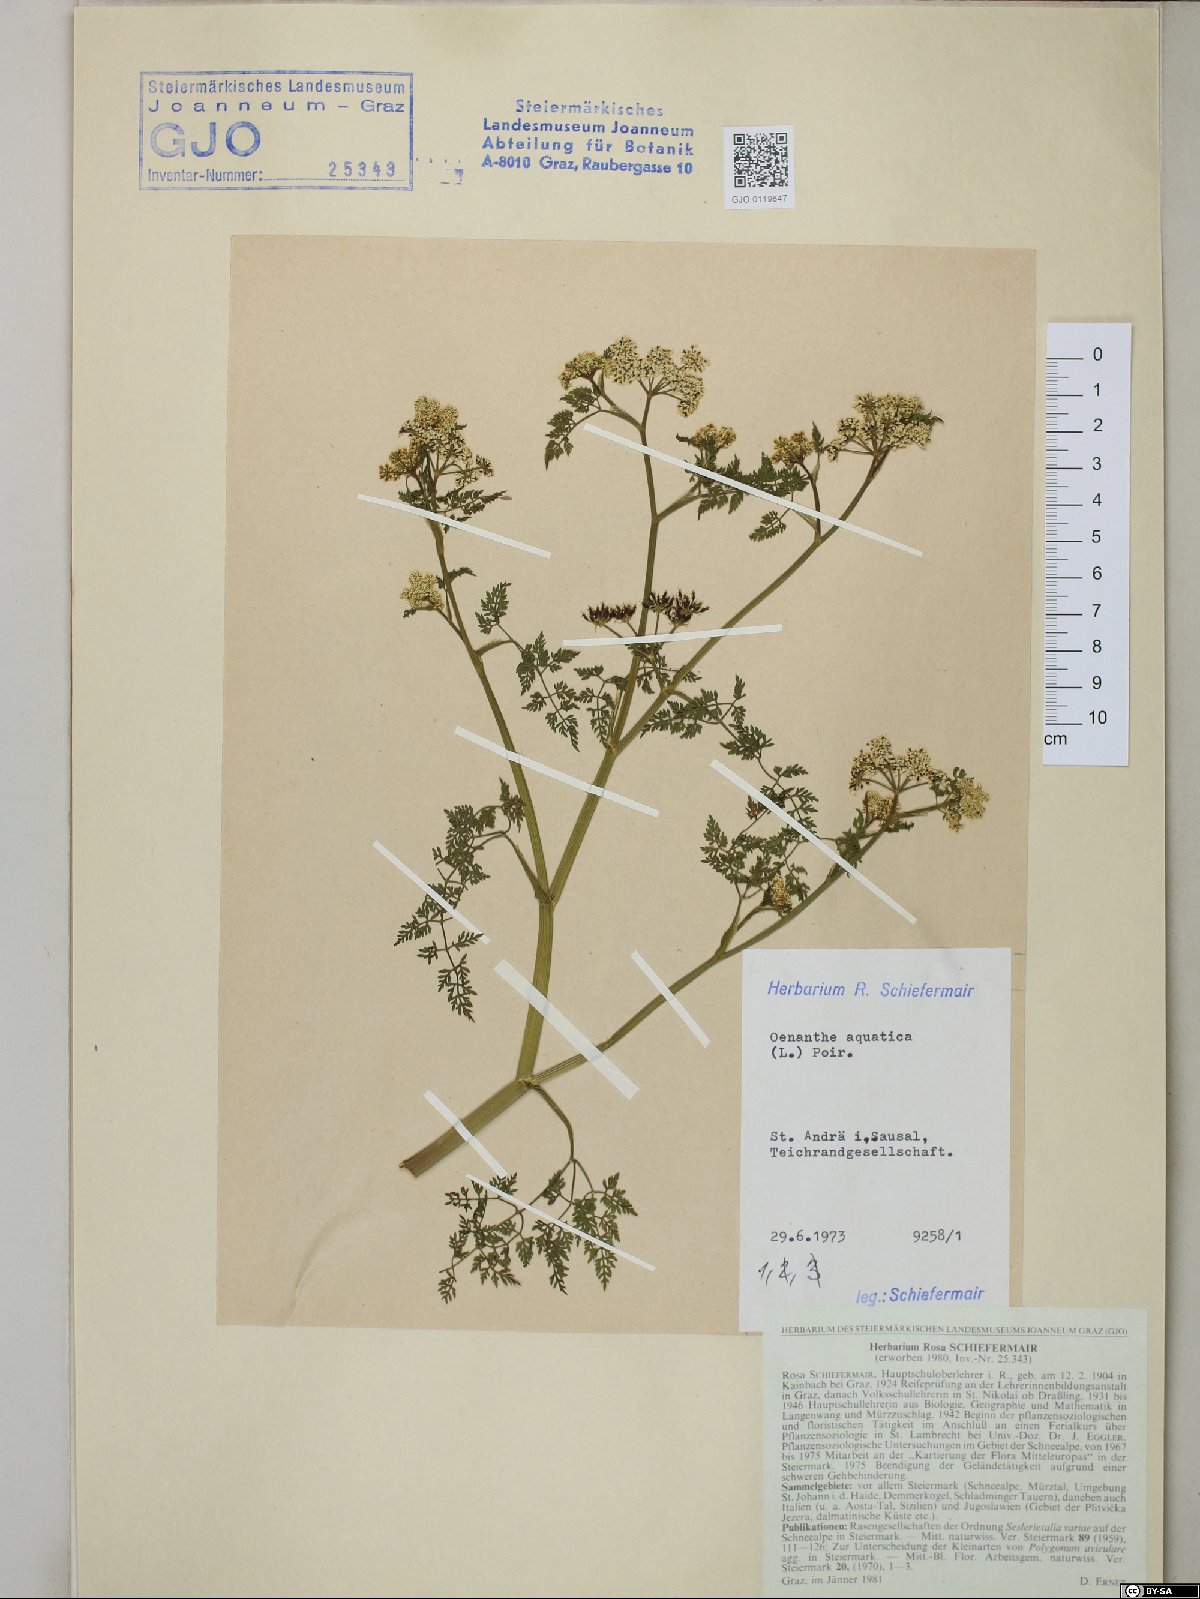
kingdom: Plantae
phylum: Tracheophyta
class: Magnoliopsida
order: Apiales
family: Apiaceae
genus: Oenanthe
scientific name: Oenanthe aquatica
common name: Fine-leaved water-dropwort
